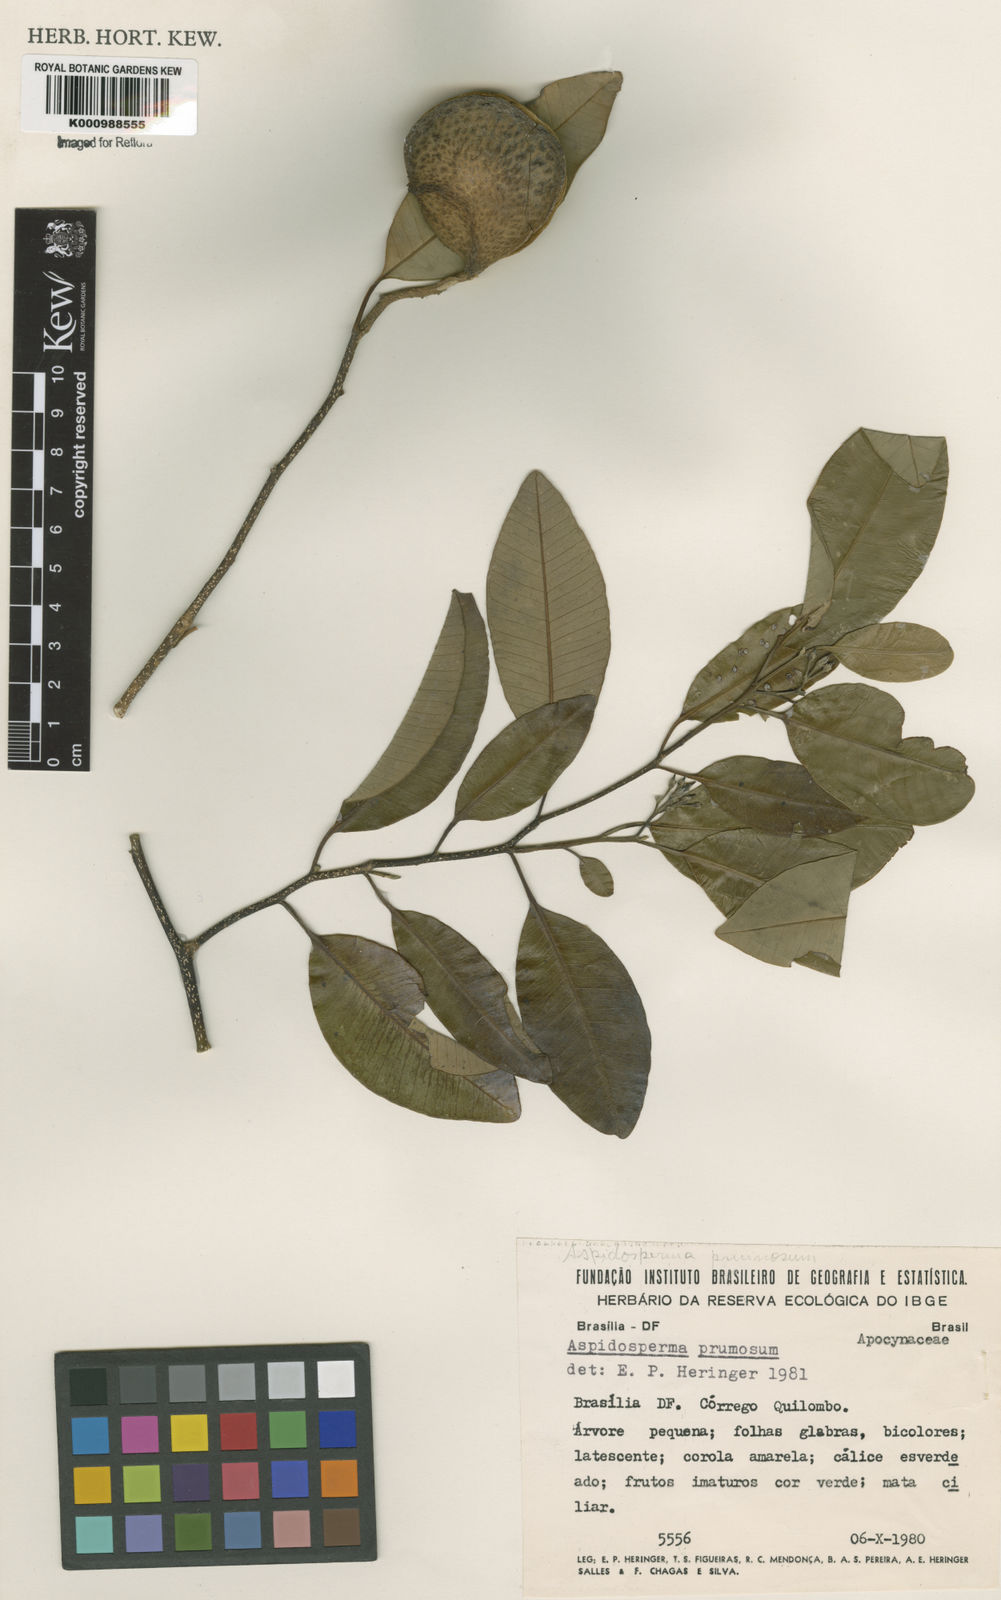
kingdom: Plantae
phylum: Tracheophyta
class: Magnoliopsida
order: Gentianales
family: Apocynaceae
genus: Aspidosperma
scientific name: Aspidosperma eburneum
